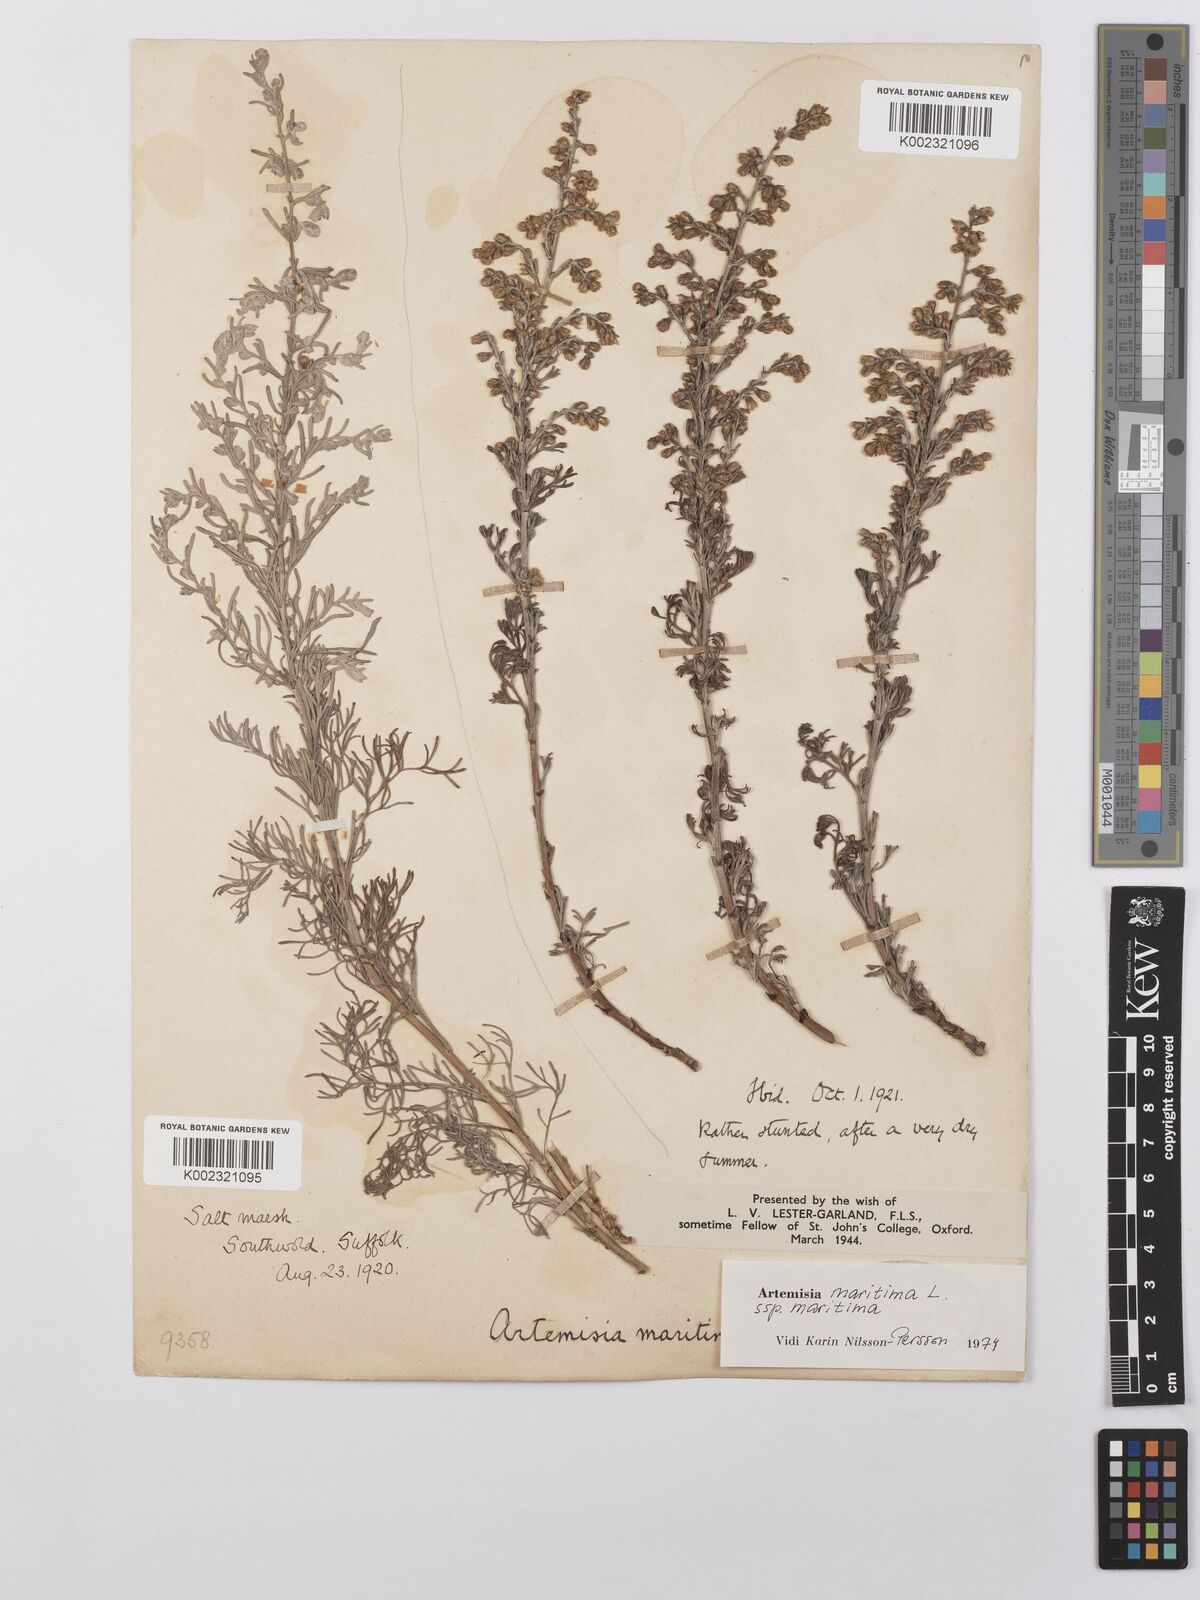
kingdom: Plantae
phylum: Tracheophyta
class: Magnoliopsida
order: Asterales
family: Asteraceae
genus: Artemisia
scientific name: Artemisia maritima
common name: Wormseed
